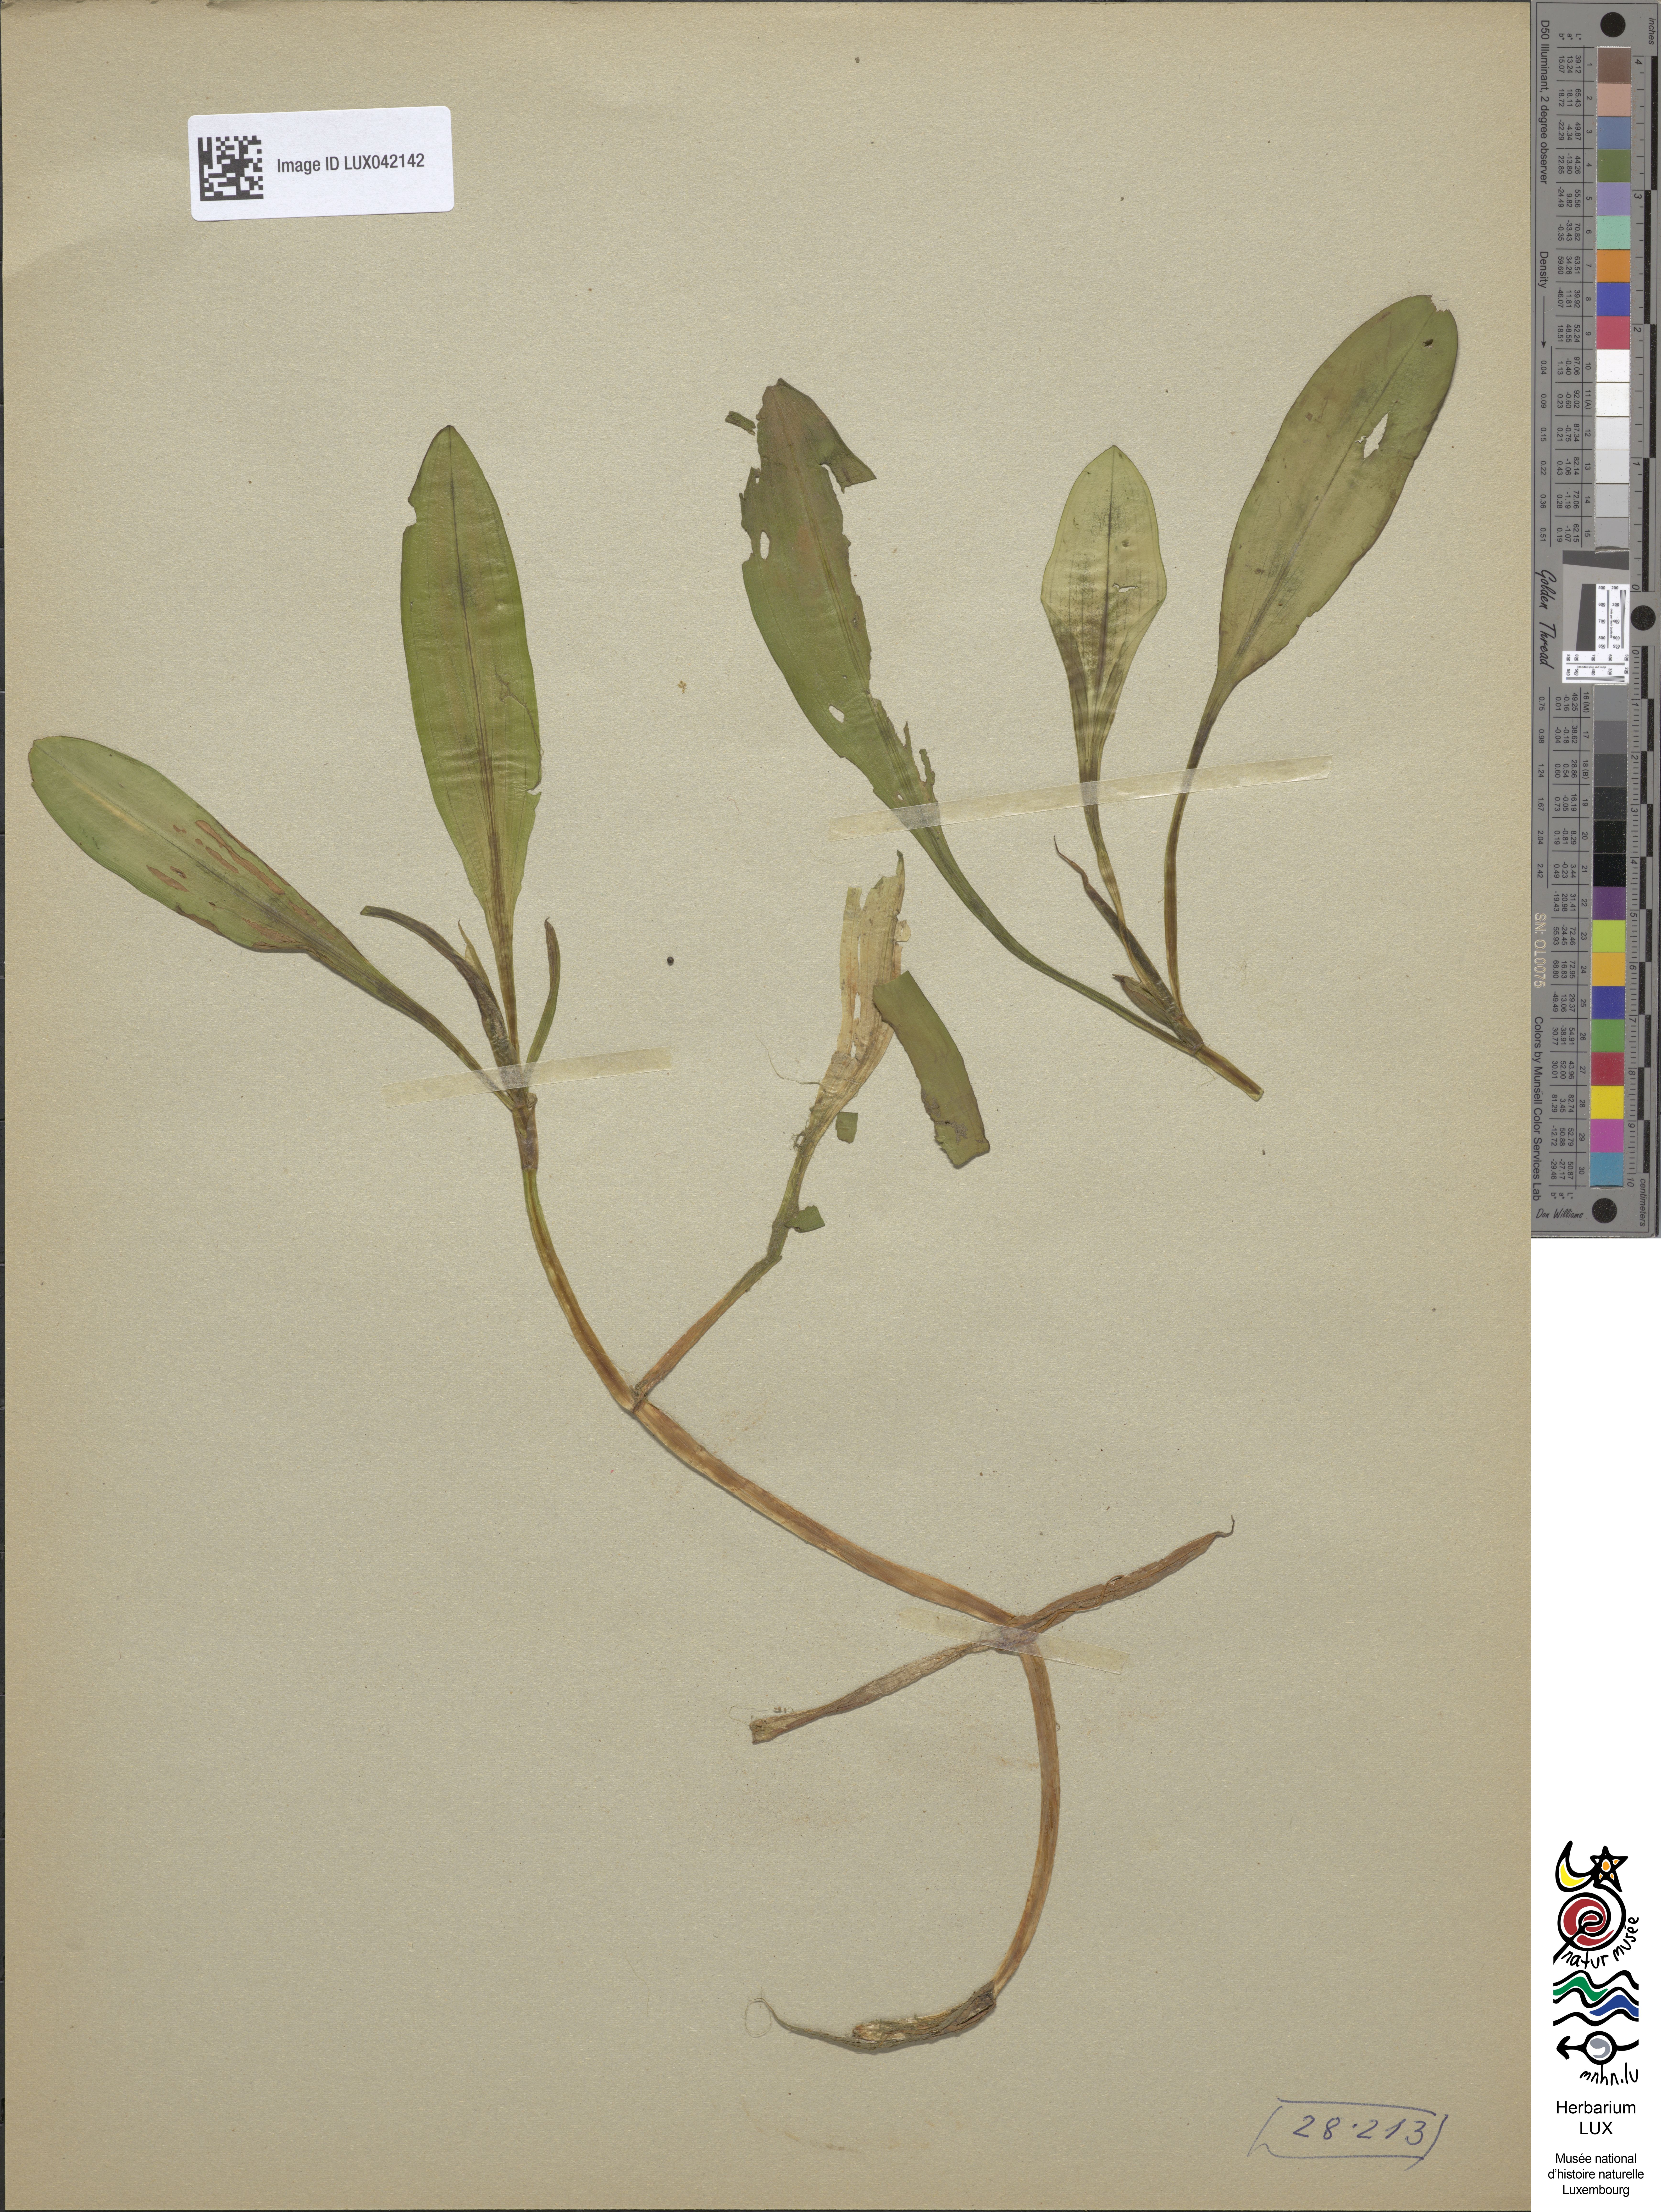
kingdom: Plantae
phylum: Tracheophyta
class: Liliopsida
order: Alismatales
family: Potamogetonaceae
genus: Potamogeton
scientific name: Potamogeton fluitans
